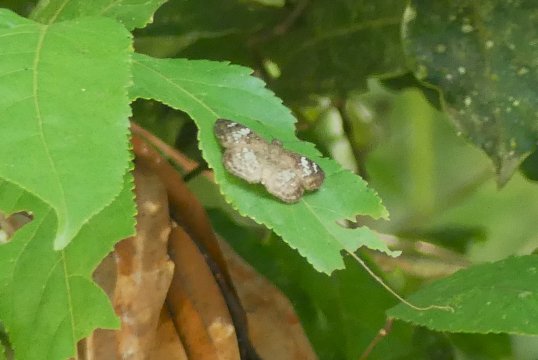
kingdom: Animalia
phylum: Arthropoda
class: Insecta
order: Lepidoptera
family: Hesperiidae
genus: Xenophanes
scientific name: Xenophanes tryxus
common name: Glassy-winged Skipper
